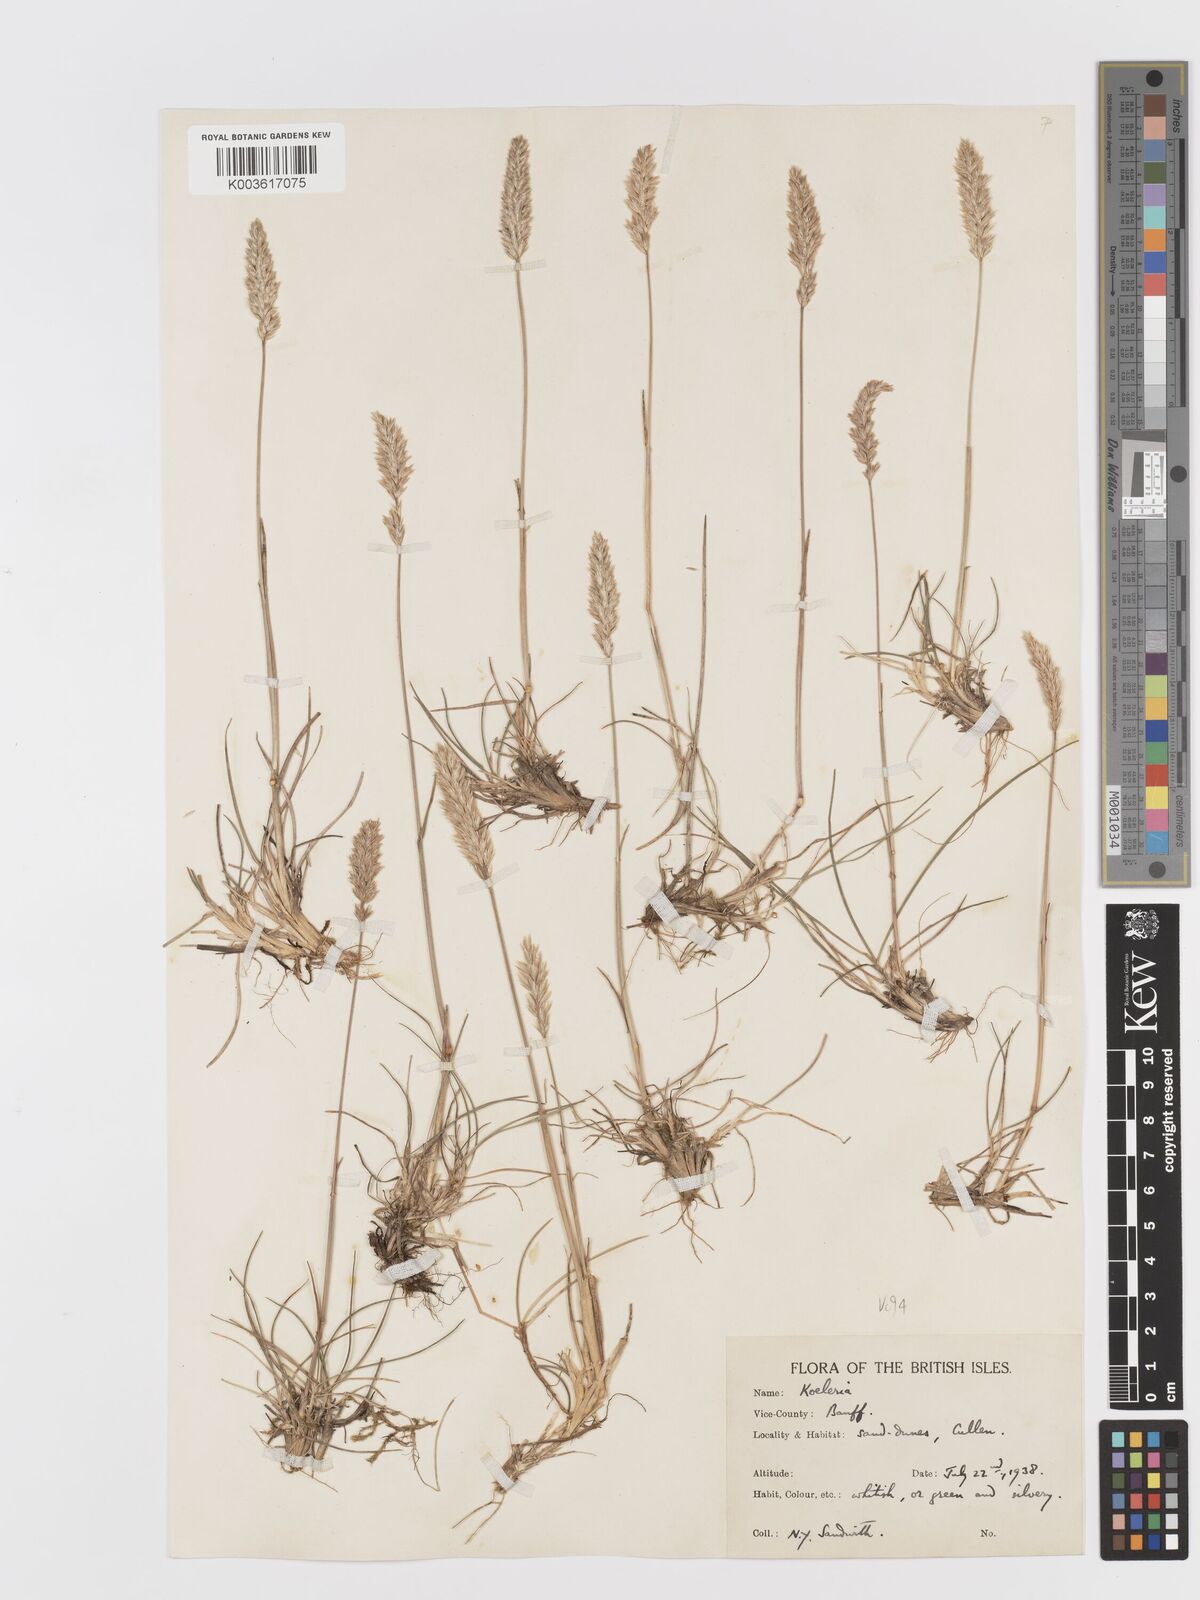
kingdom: Plantae
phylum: Tracheophyta
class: Liliopsida
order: Poales
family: Poaceae
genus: Koeleria
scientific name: Koeleria macrantha
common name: Crested hair-grass
